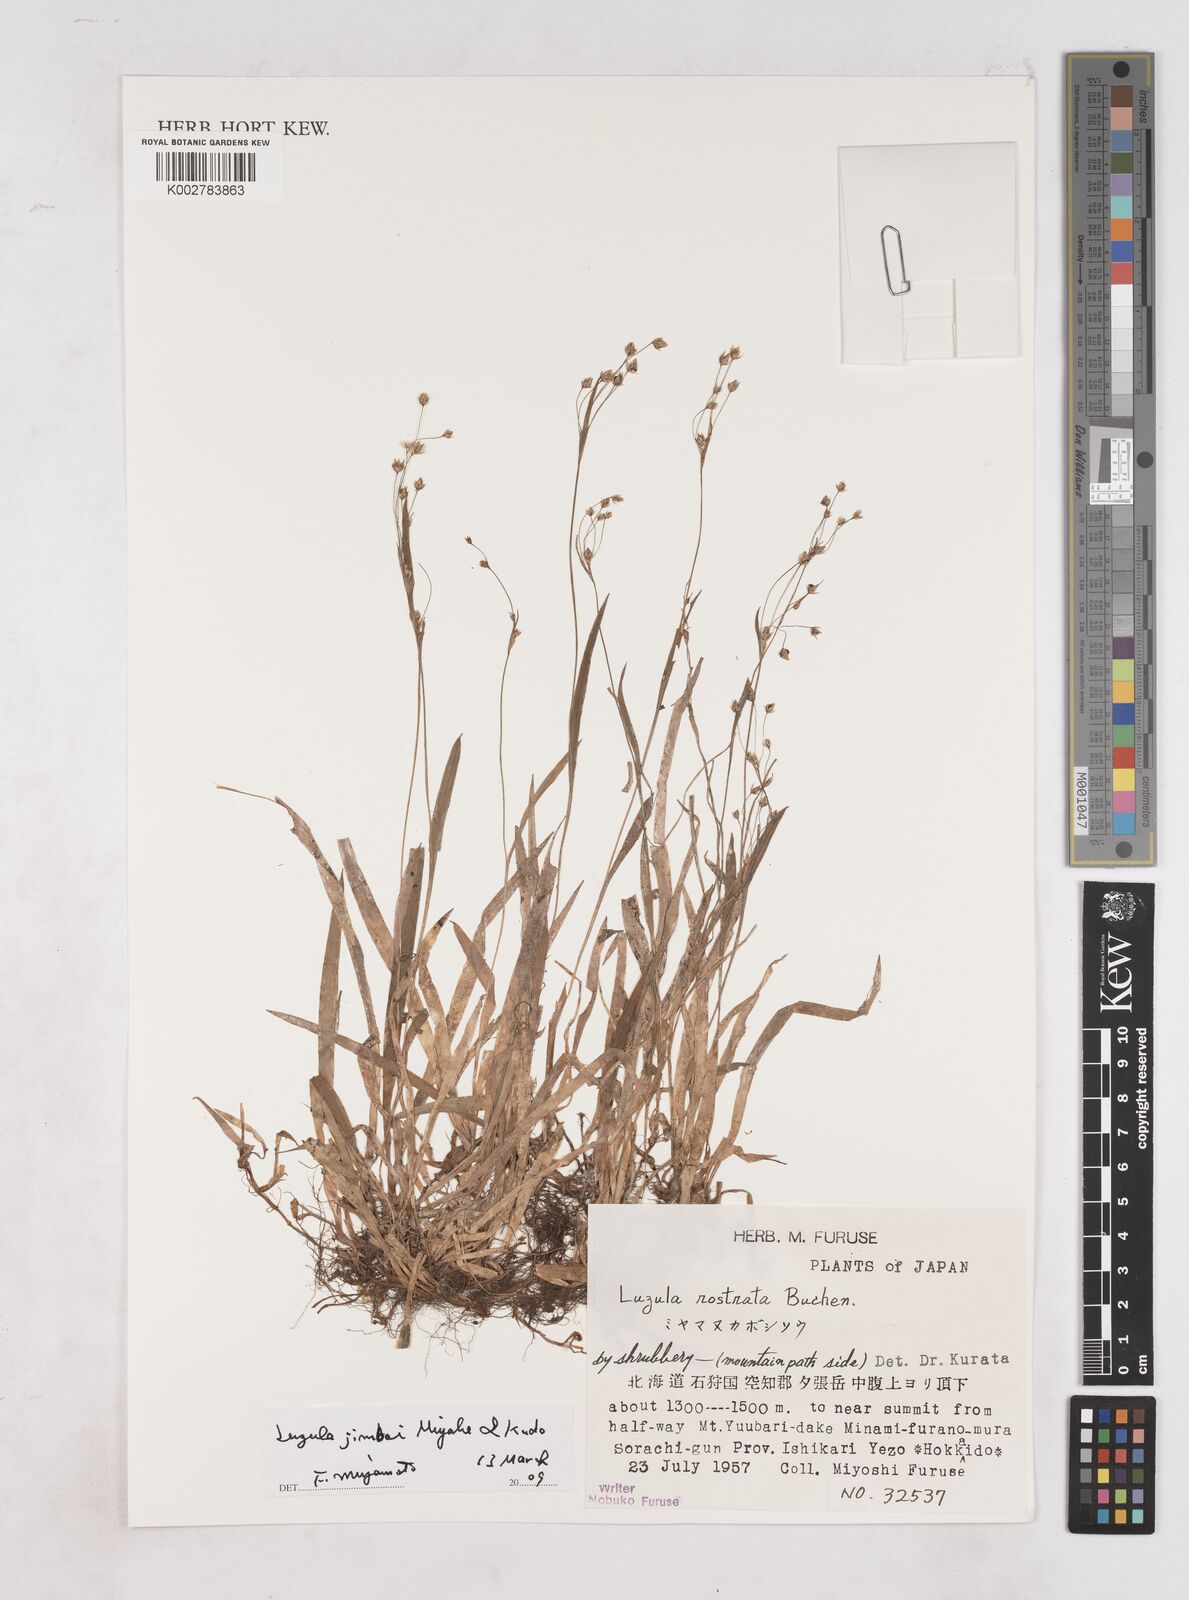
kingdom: Plantae
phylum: Tracheophyta
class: Liliopsida
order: Poales
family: Juncaceae
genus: Luzula
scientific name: Luzula plumosa
